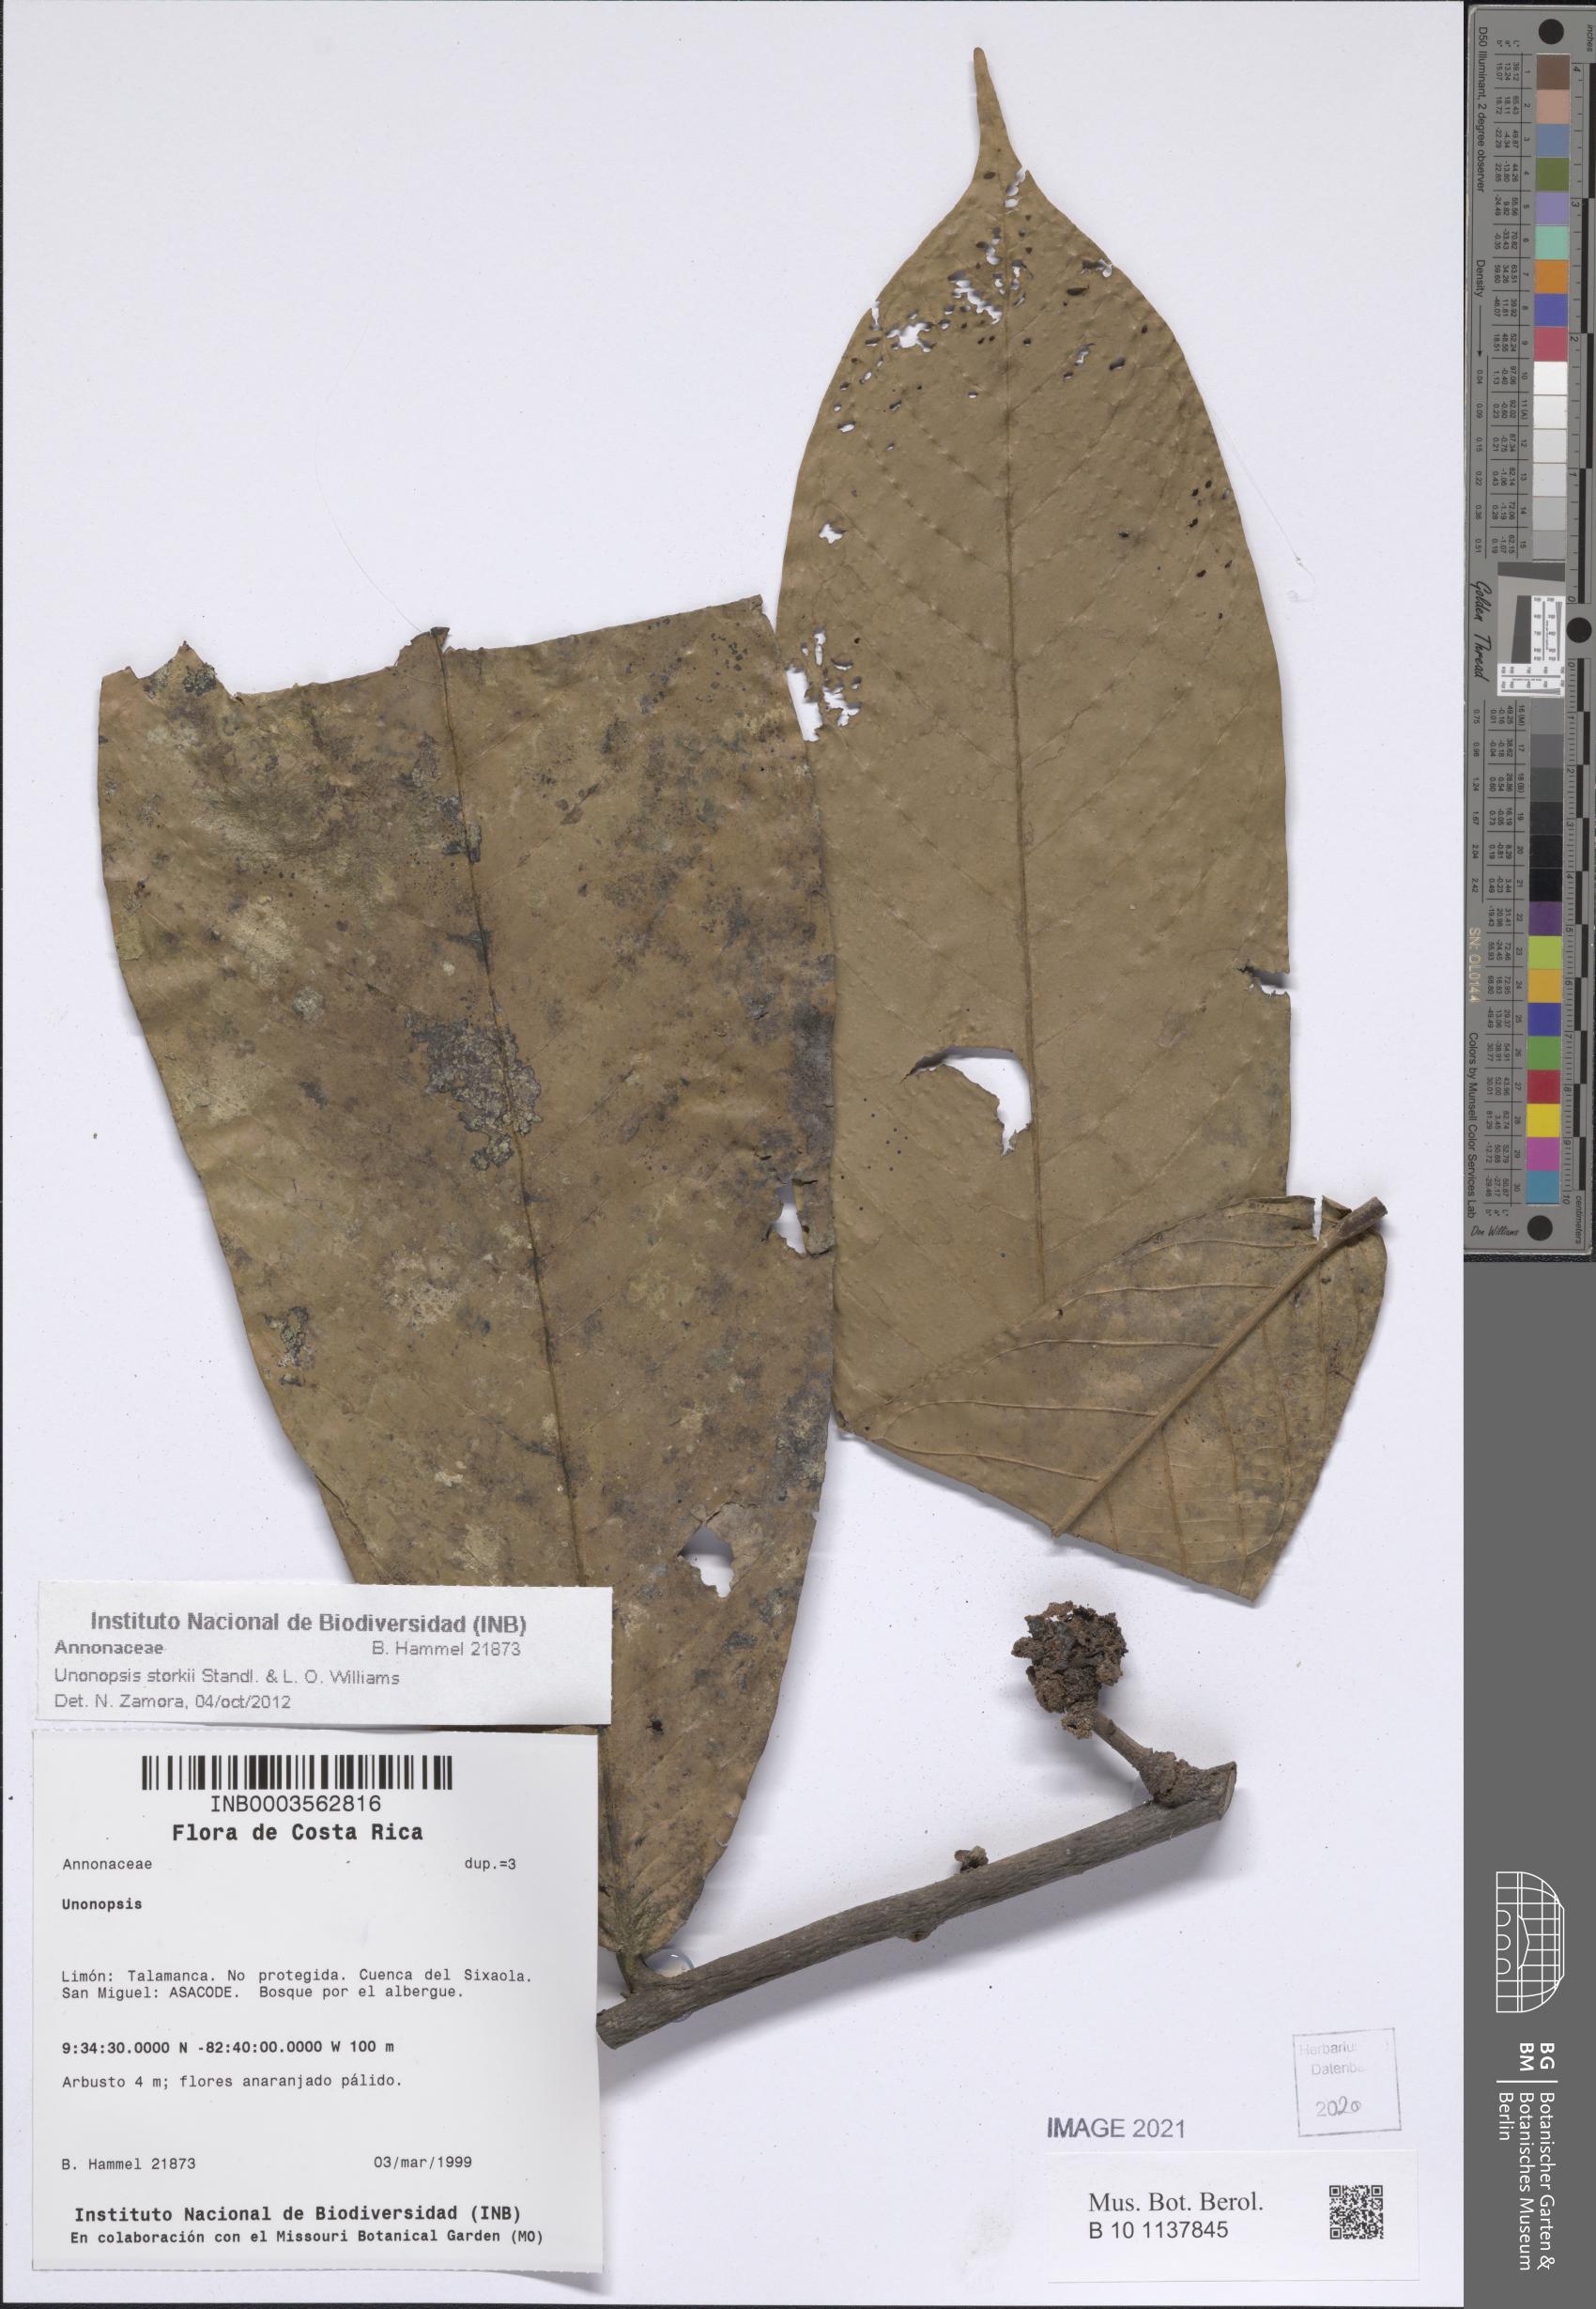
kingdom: Plantae
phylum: Tracheophyta
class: Magnoliopsida
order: Magnoliales
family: Annonaceae
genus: Unonopsis
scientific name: Unonopsis storkii
